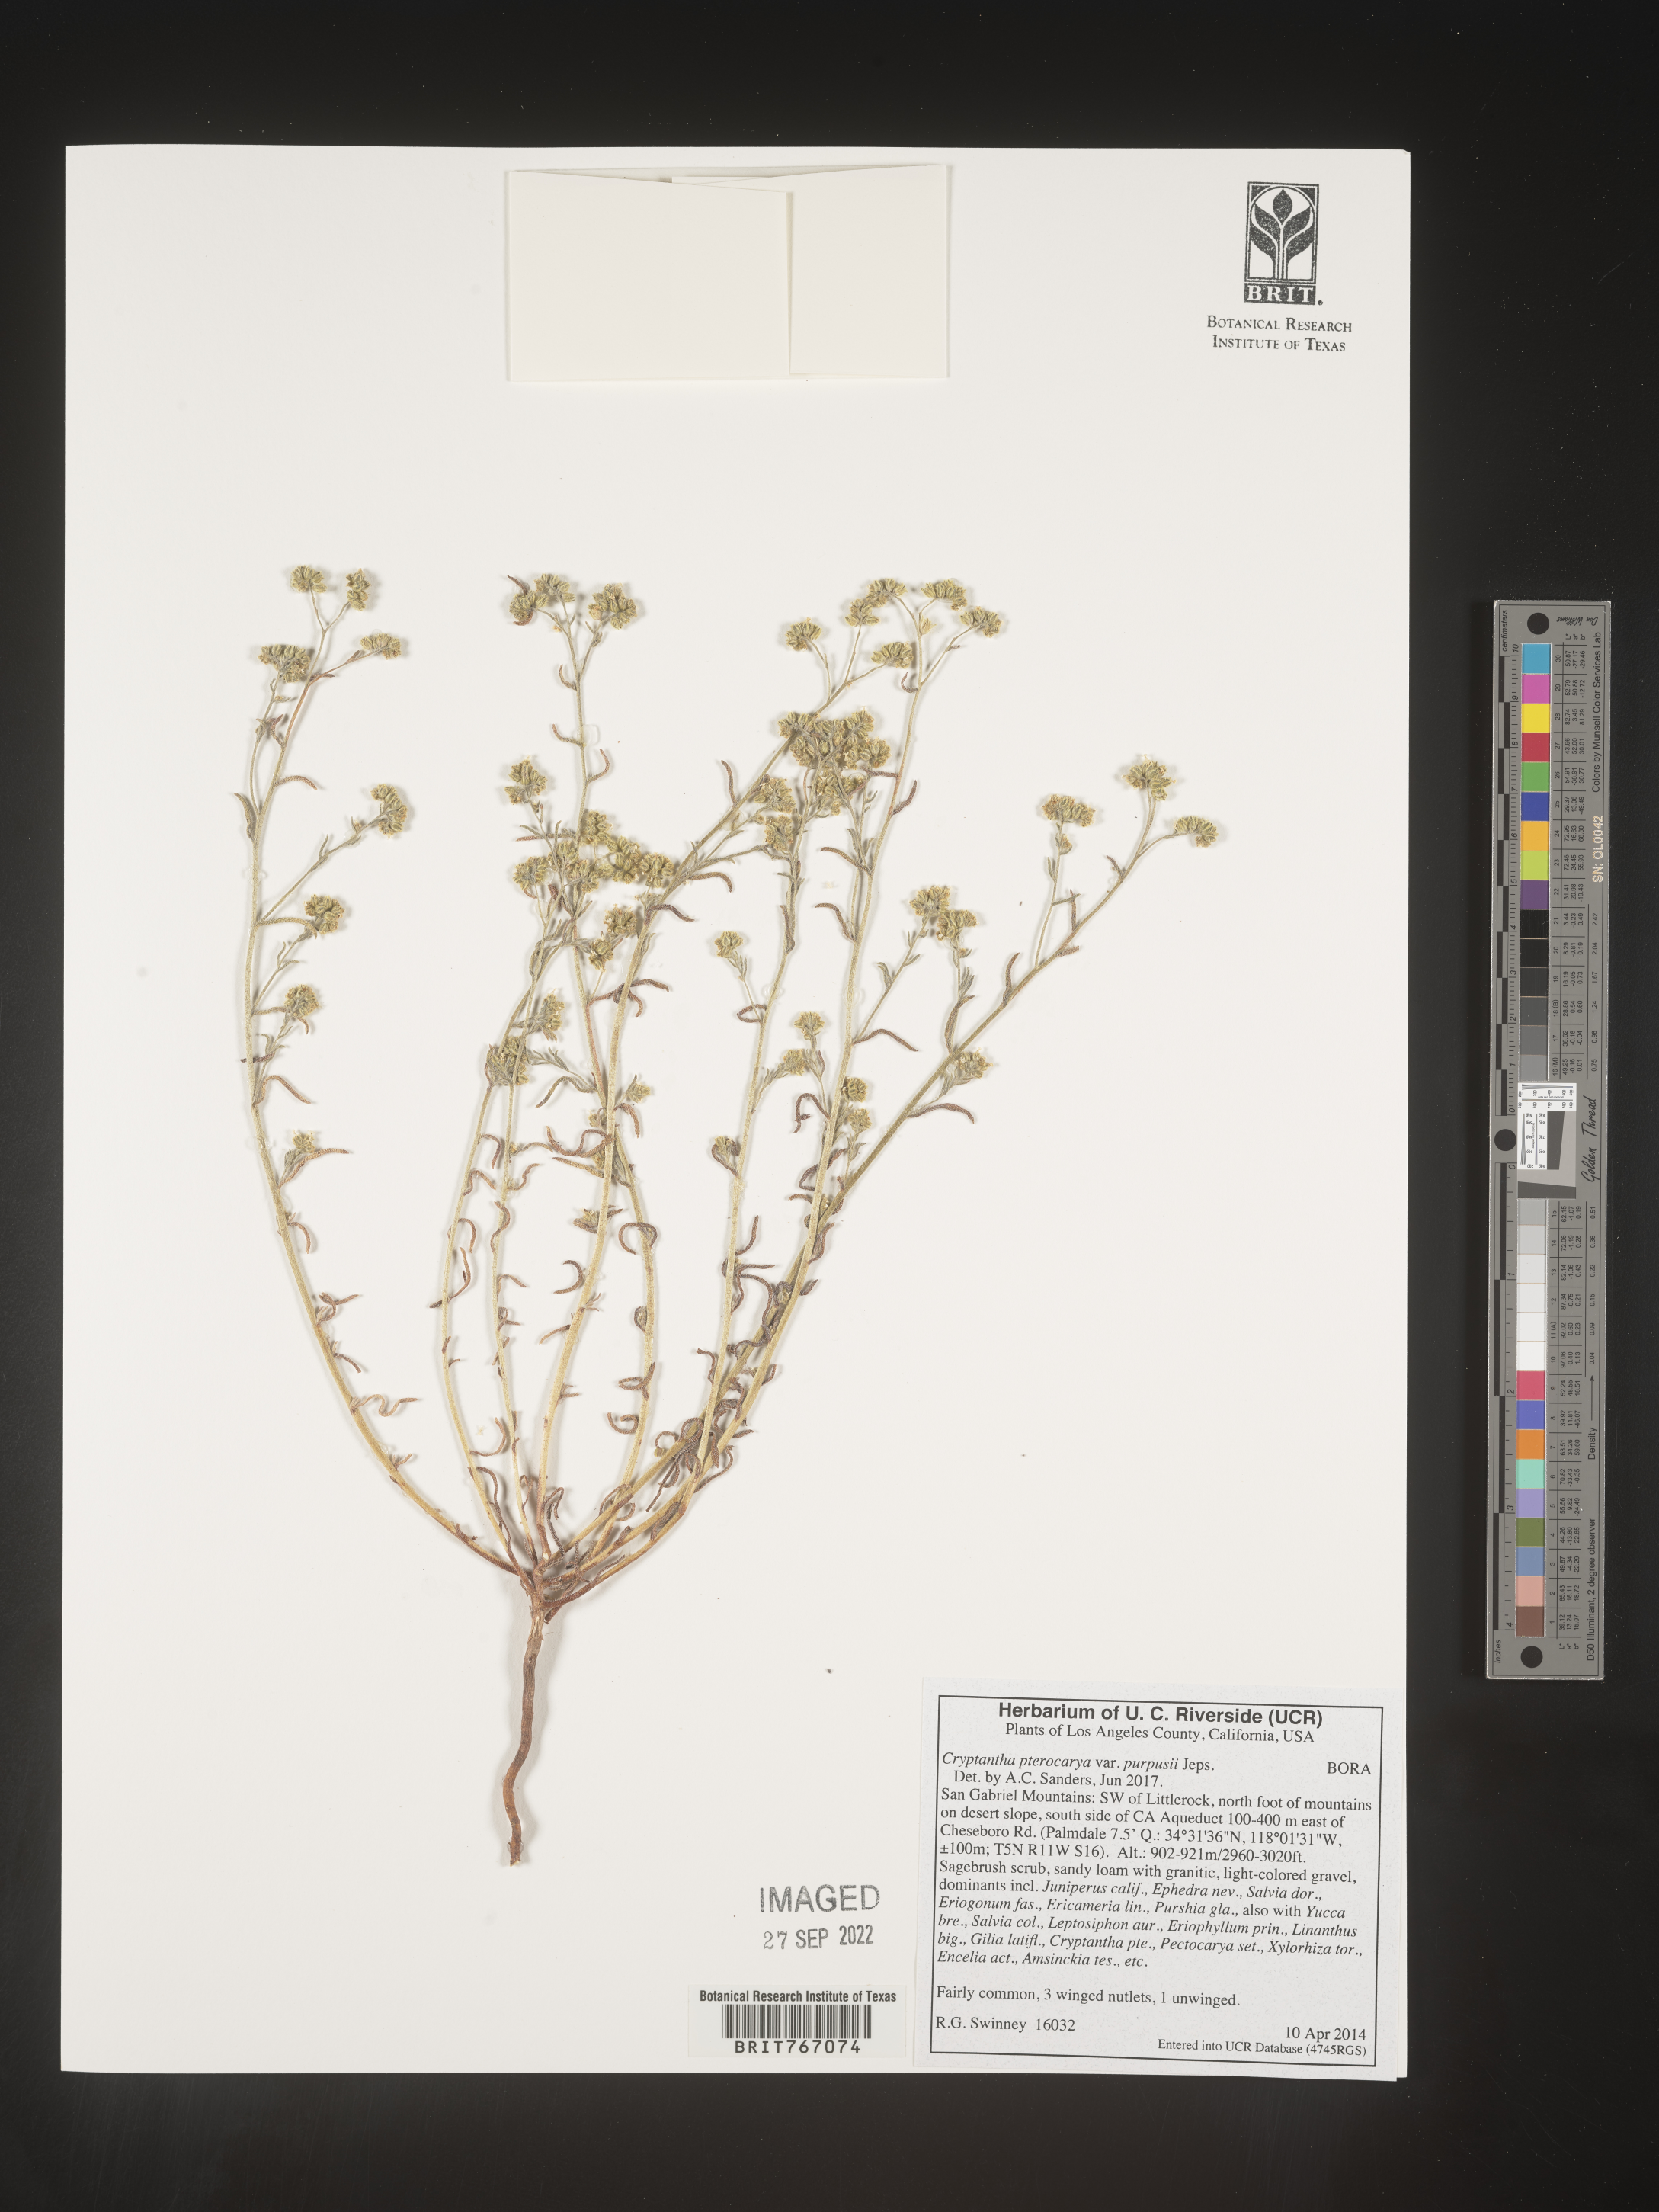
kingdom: Plantae
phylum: Tracheophyta
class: Magnoliopsida
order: Boraginales
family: Boraginaceae
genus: Cryptantha
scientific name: Cryptantha pterocarya
